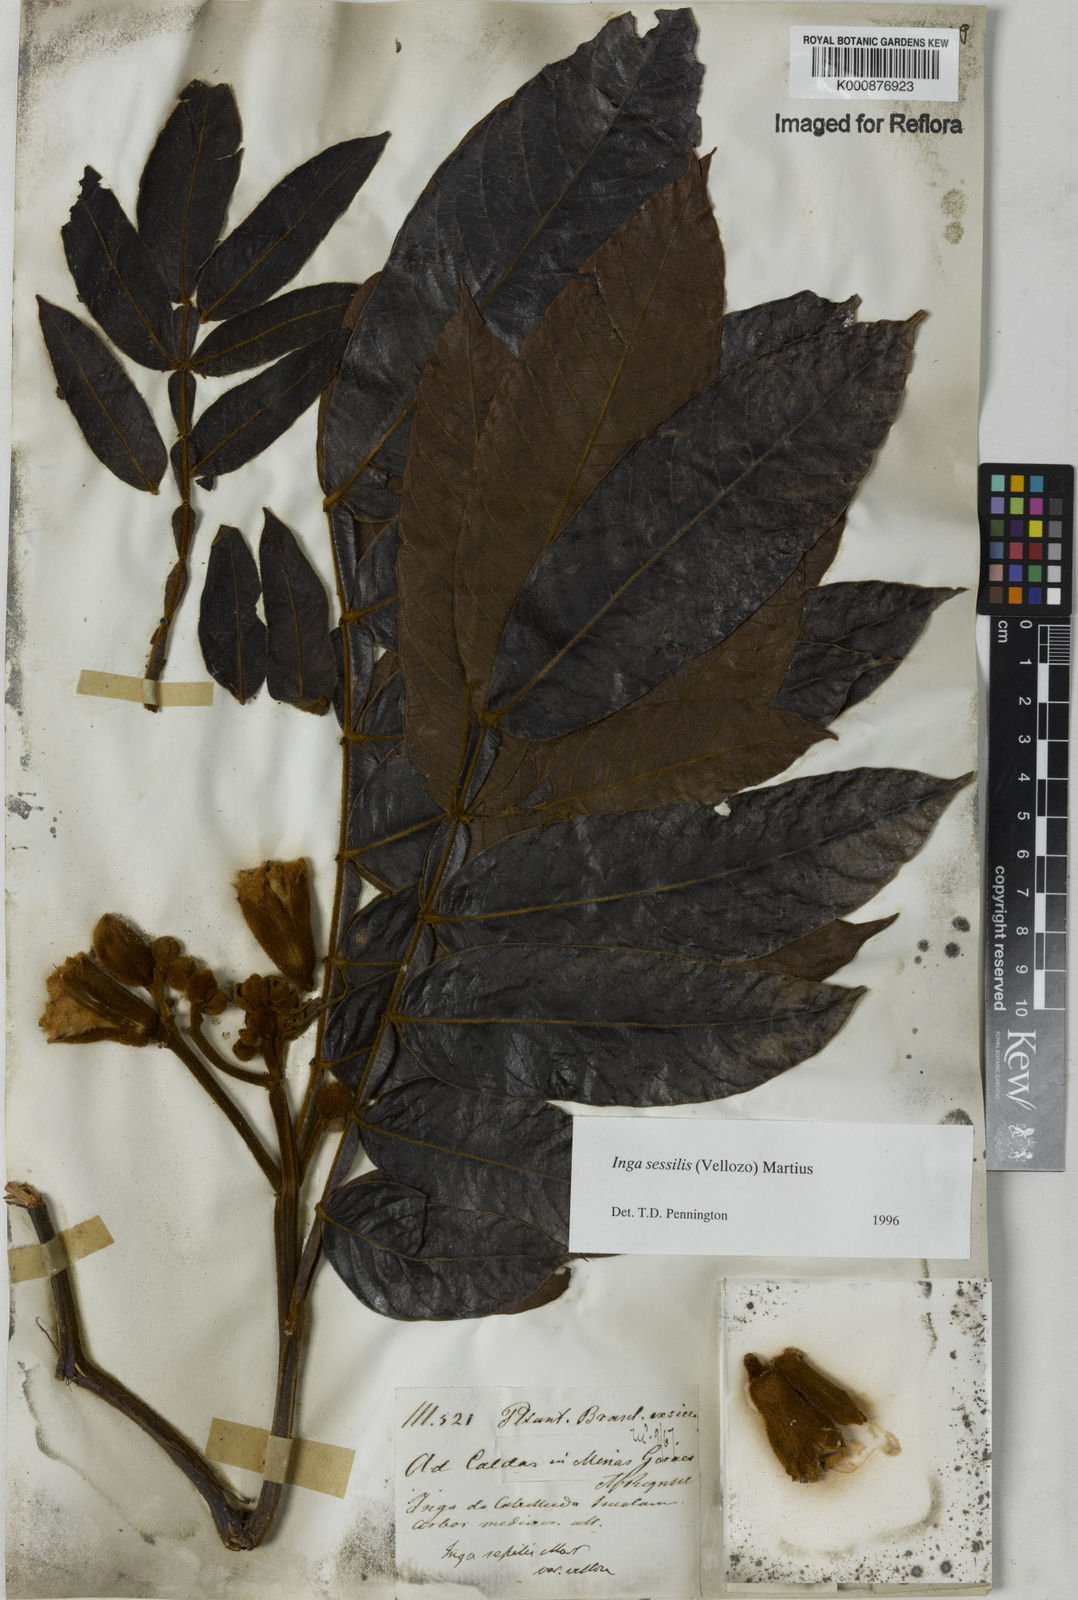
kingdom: Plantae
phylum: Tracheophyta
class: Magnoliopsida
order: Fabales
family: Fabaceae
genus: Inga
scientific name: Inga sessilis
